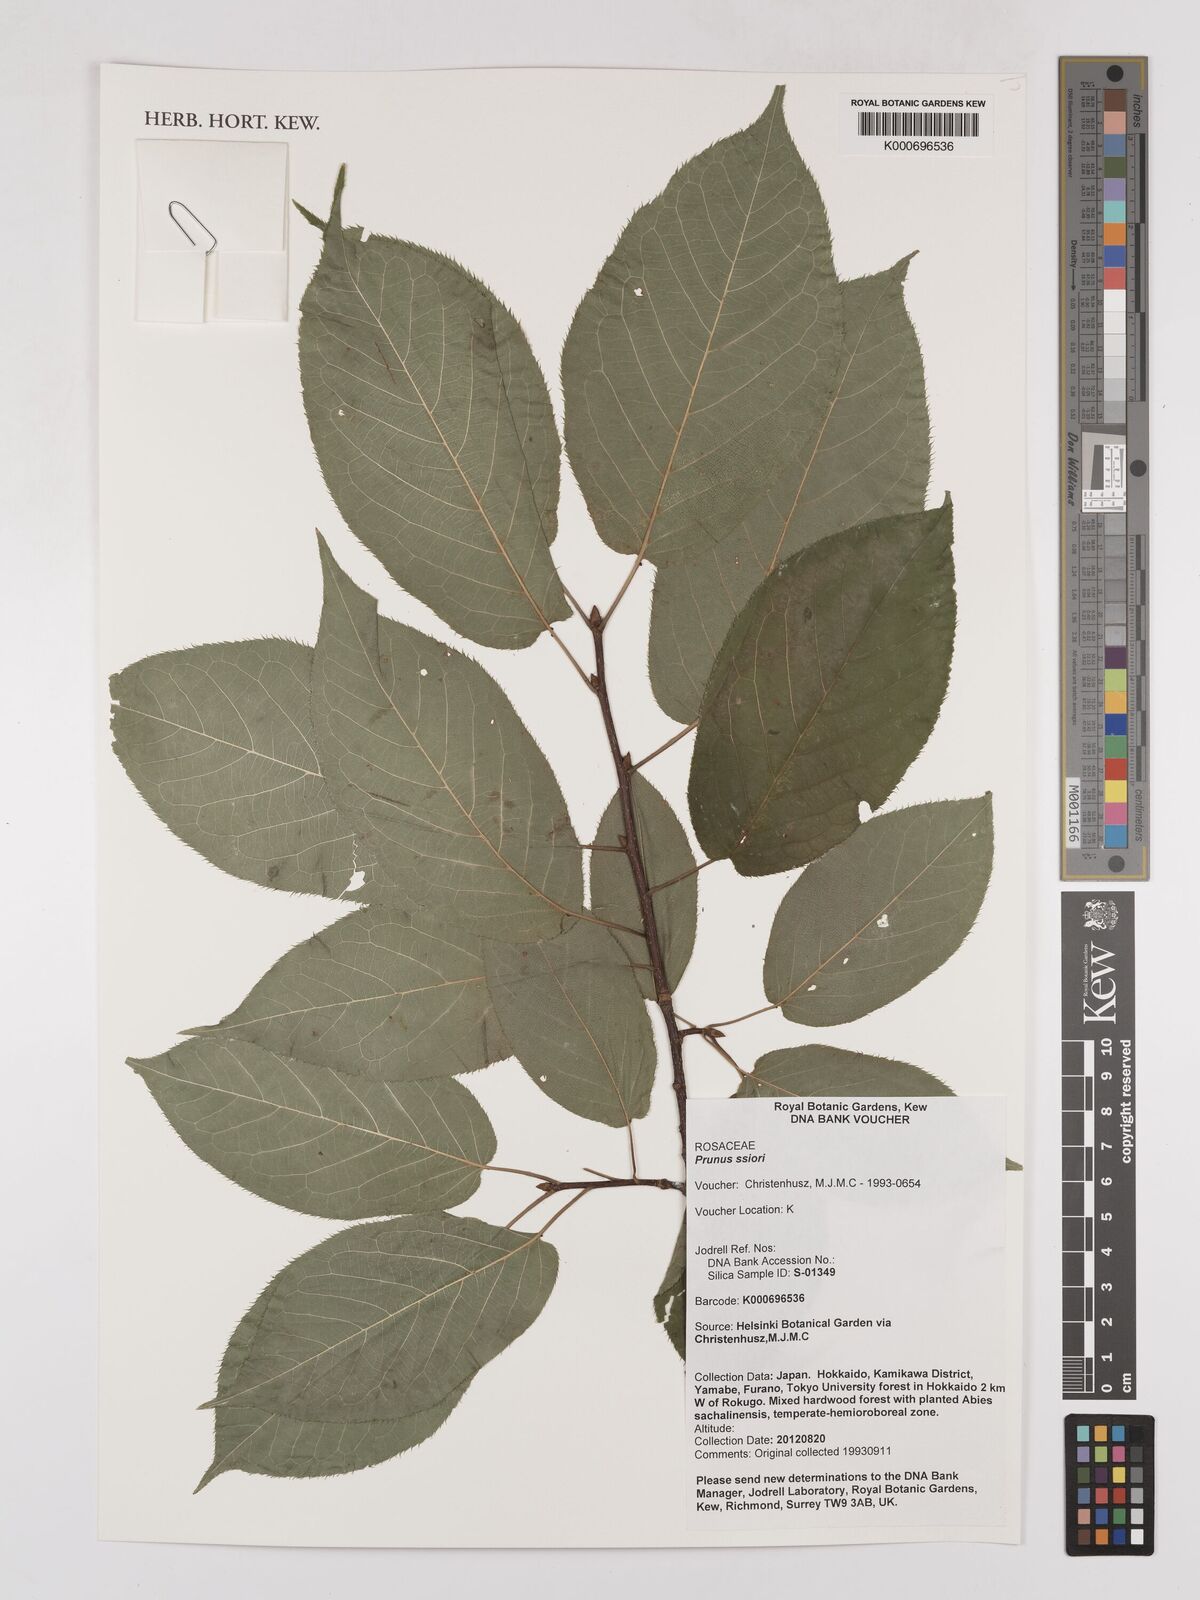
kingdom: Plantae
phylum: Tracheophyta
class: Magnoliopsida
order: Rosales
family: Rosaceae
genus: Prunus
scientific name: Prunus ssiori
